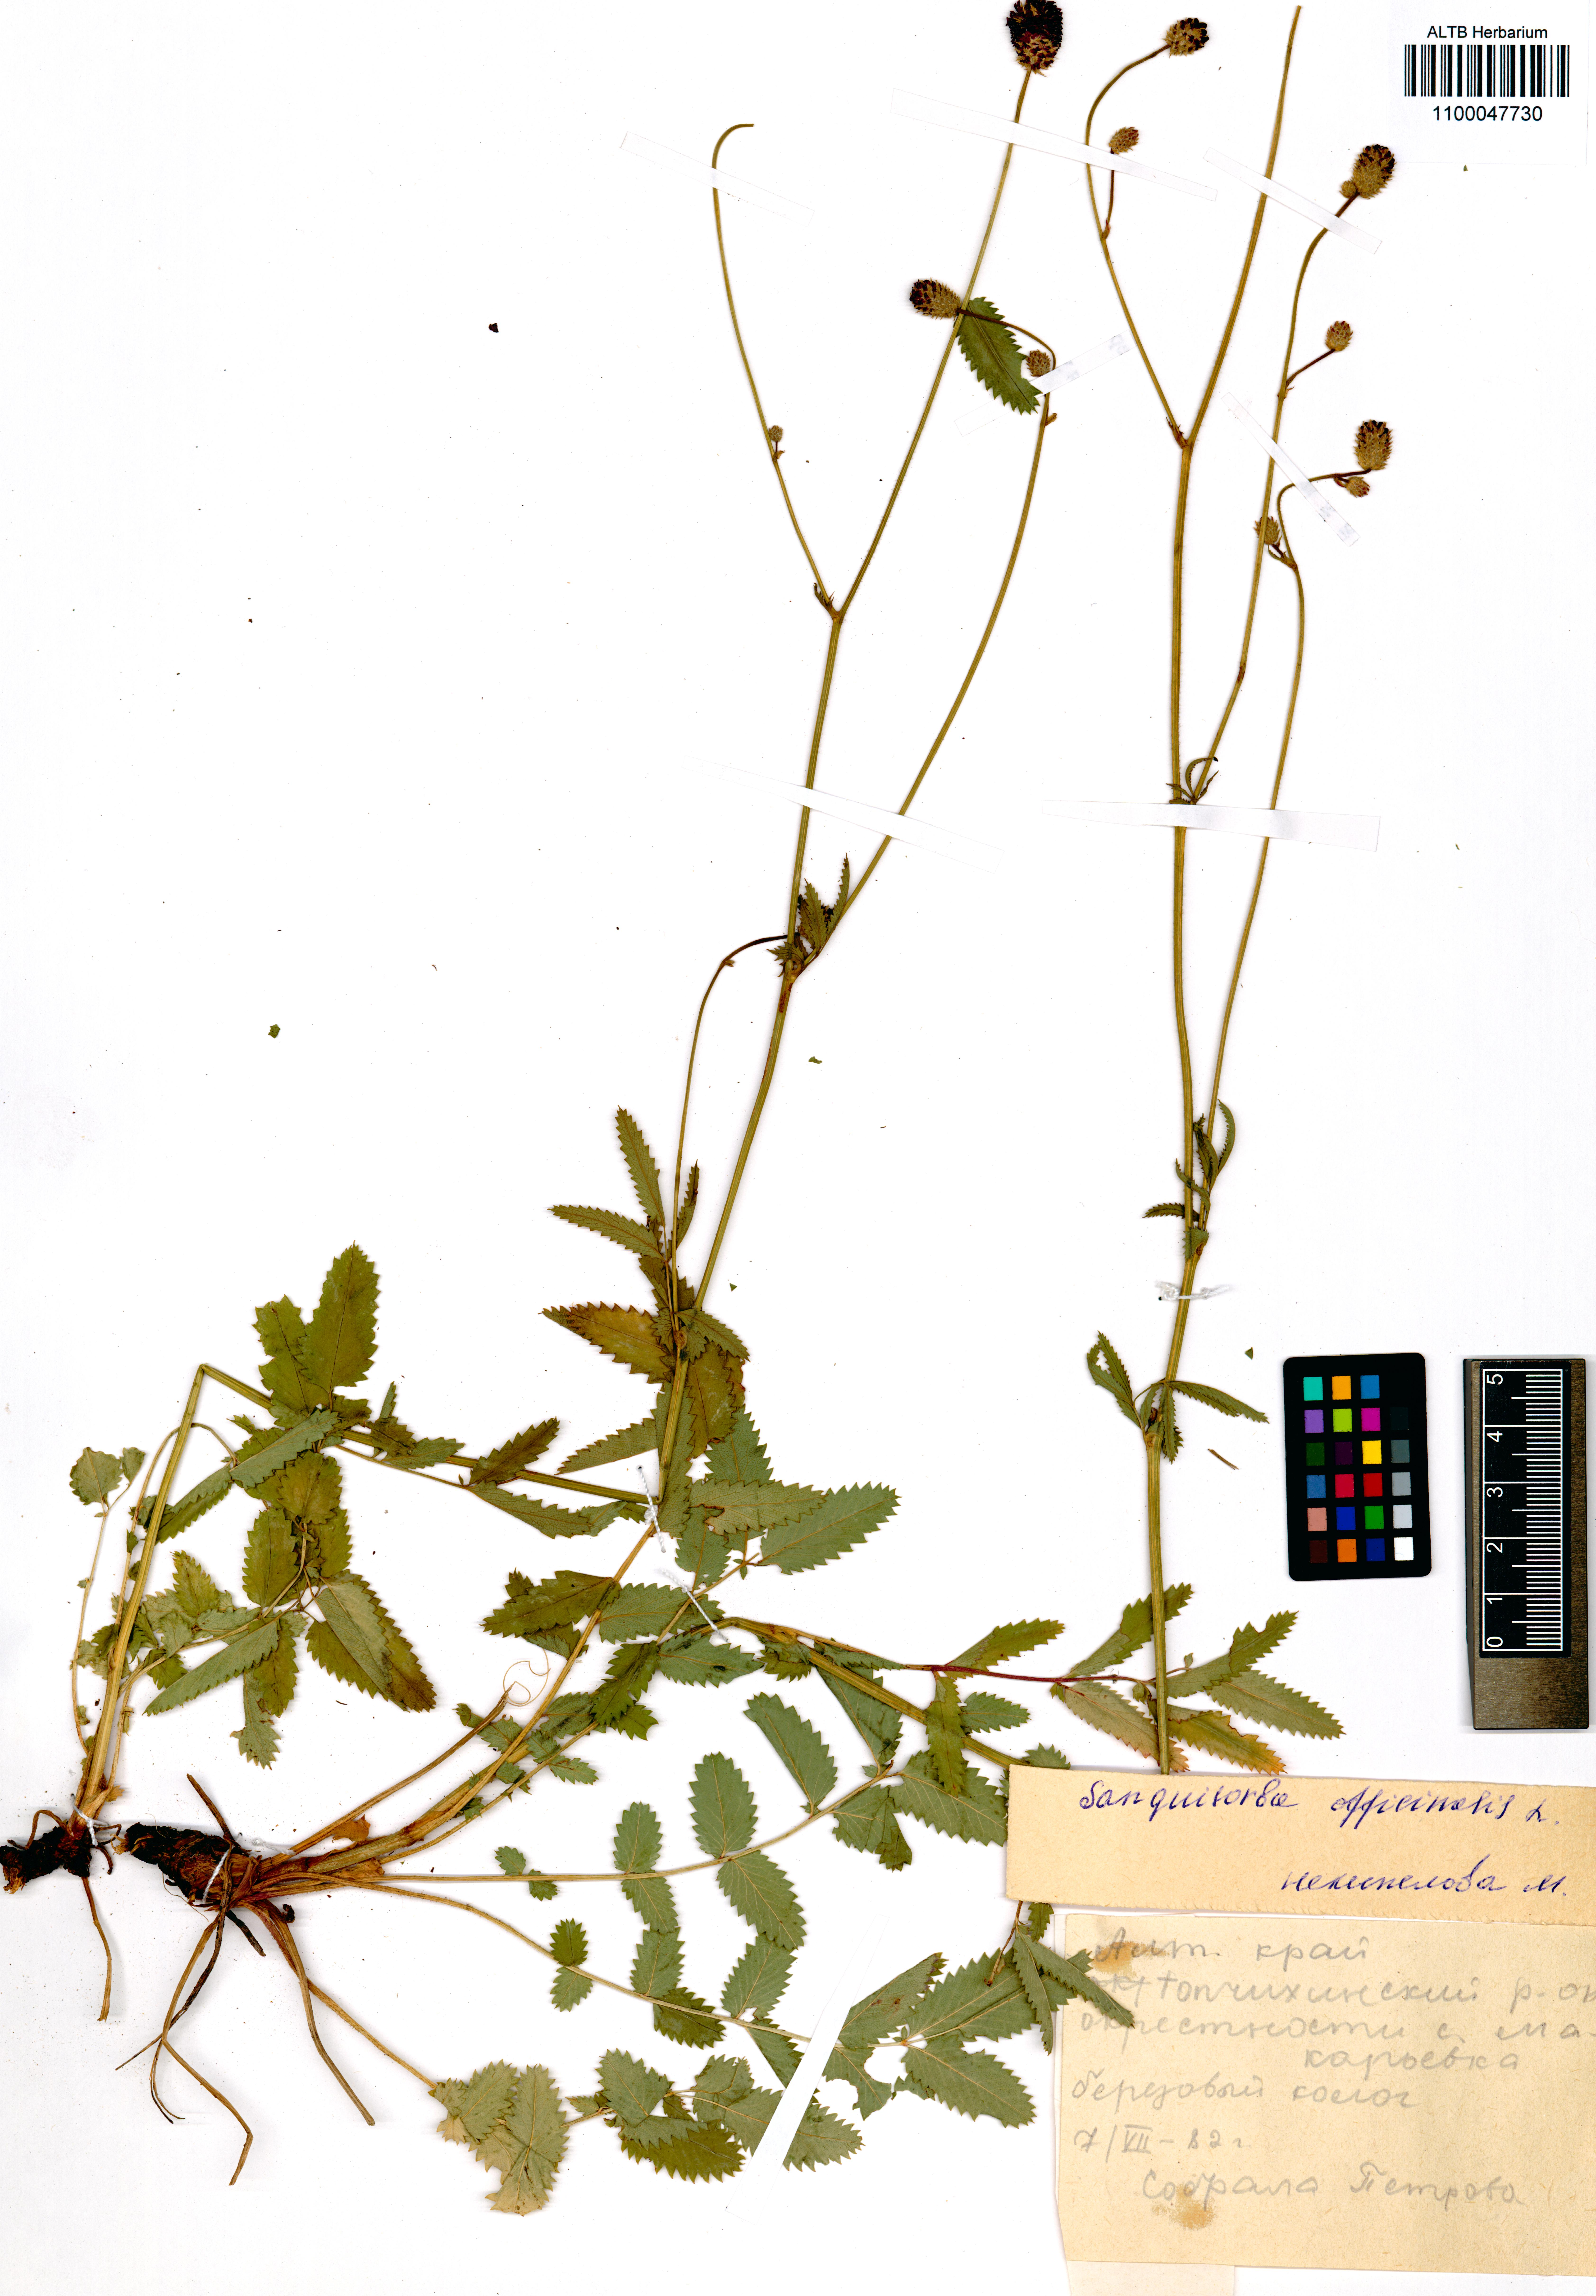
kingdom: Plantae
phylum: Tracheophyta
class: Magnoliopsida
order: Rosales
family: Rosaceae
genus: Sanguisorba
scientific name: Sanguisorba officinalis
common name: Great burnet
